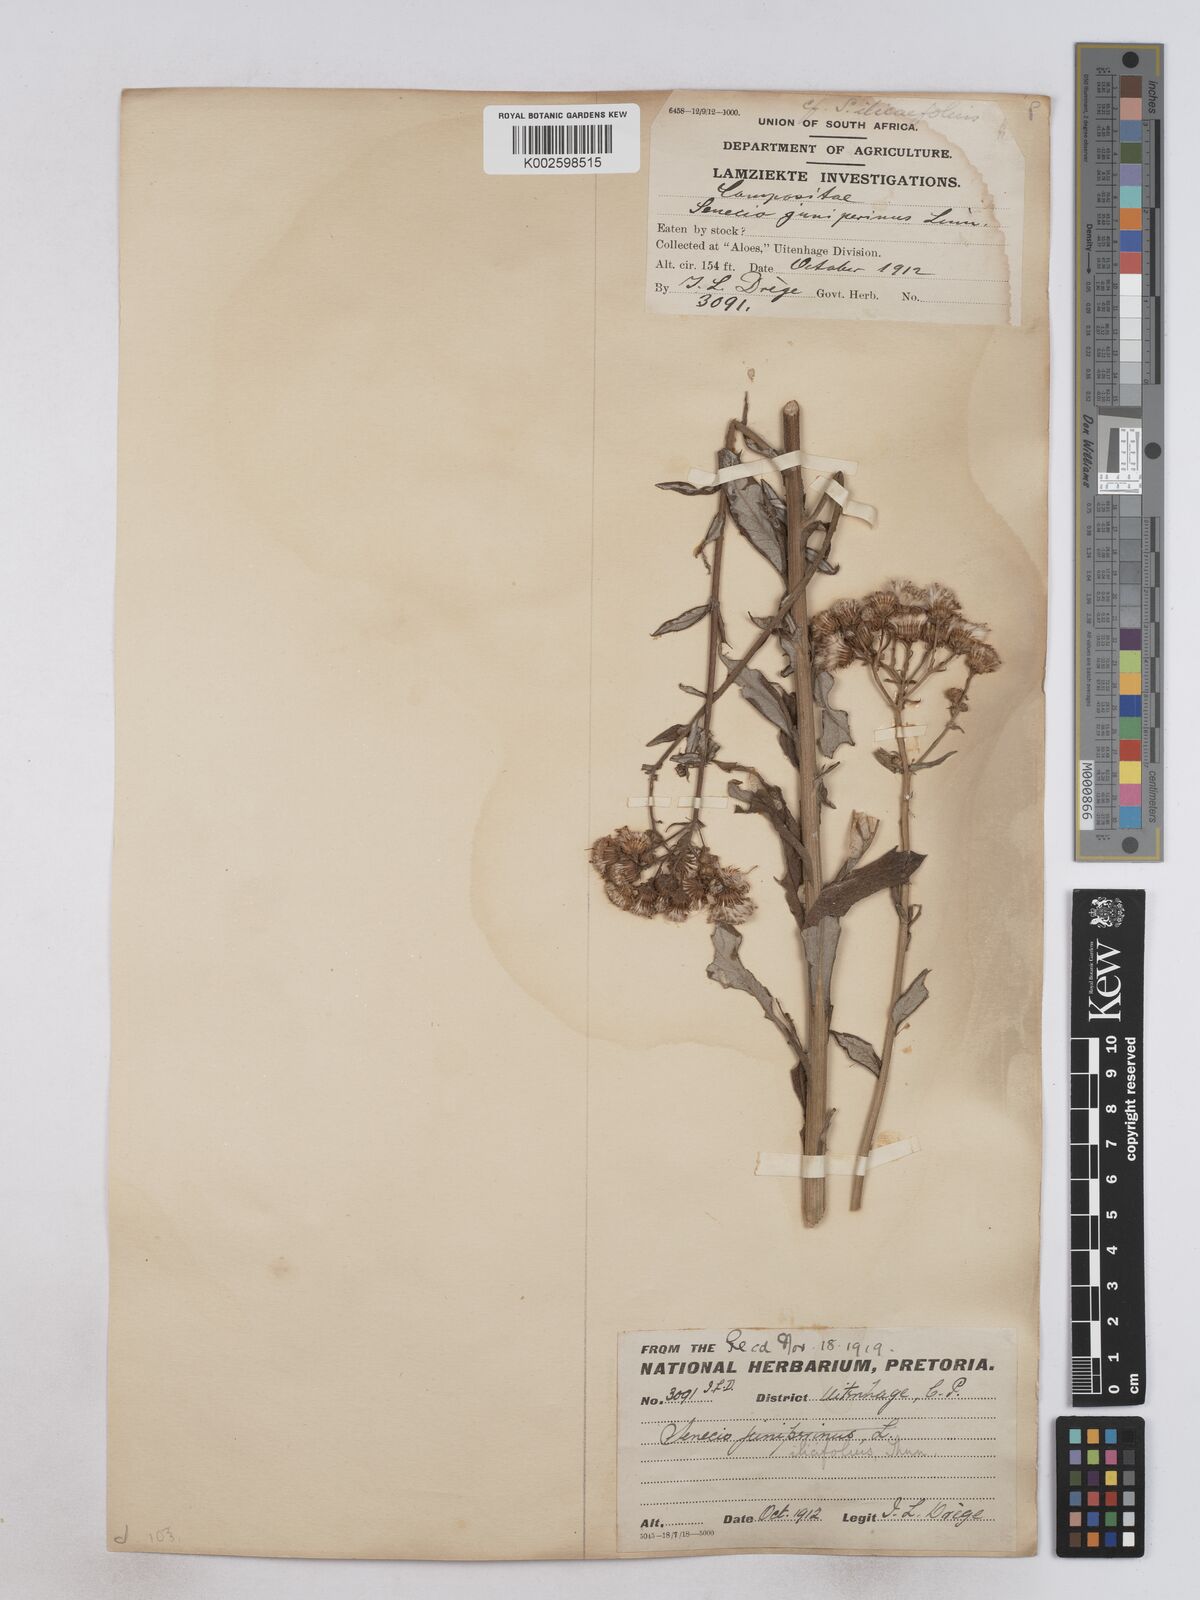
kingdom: Plantae
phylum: Tracheophyta
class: Magnoliopsida
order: Asterales
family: Asteraceae
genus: Senecio
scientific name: Senecio ilicifolius
